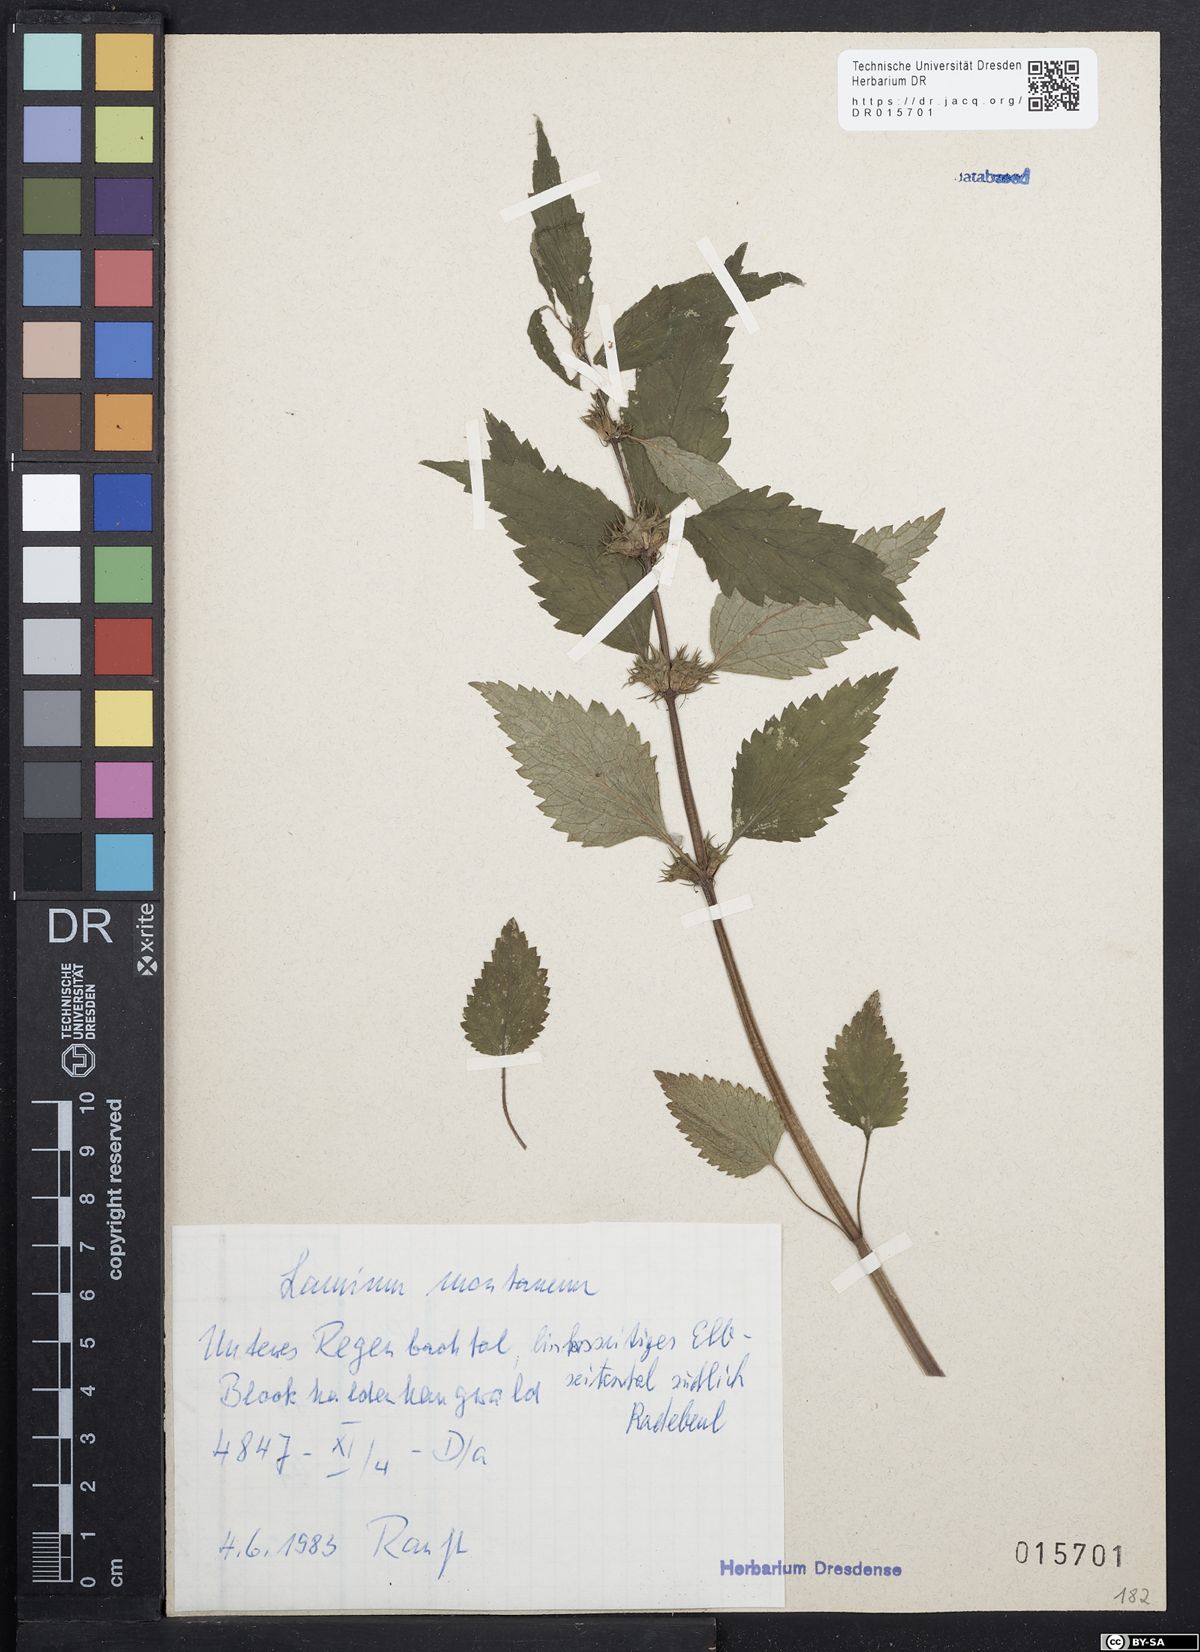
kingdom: Plantae
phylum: Tracheophyta
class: Magnoliopsida
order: Lamiales
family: Lamiaceae
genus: Lamium
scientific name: Lamium galeobdolon
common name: Yellow archangel
